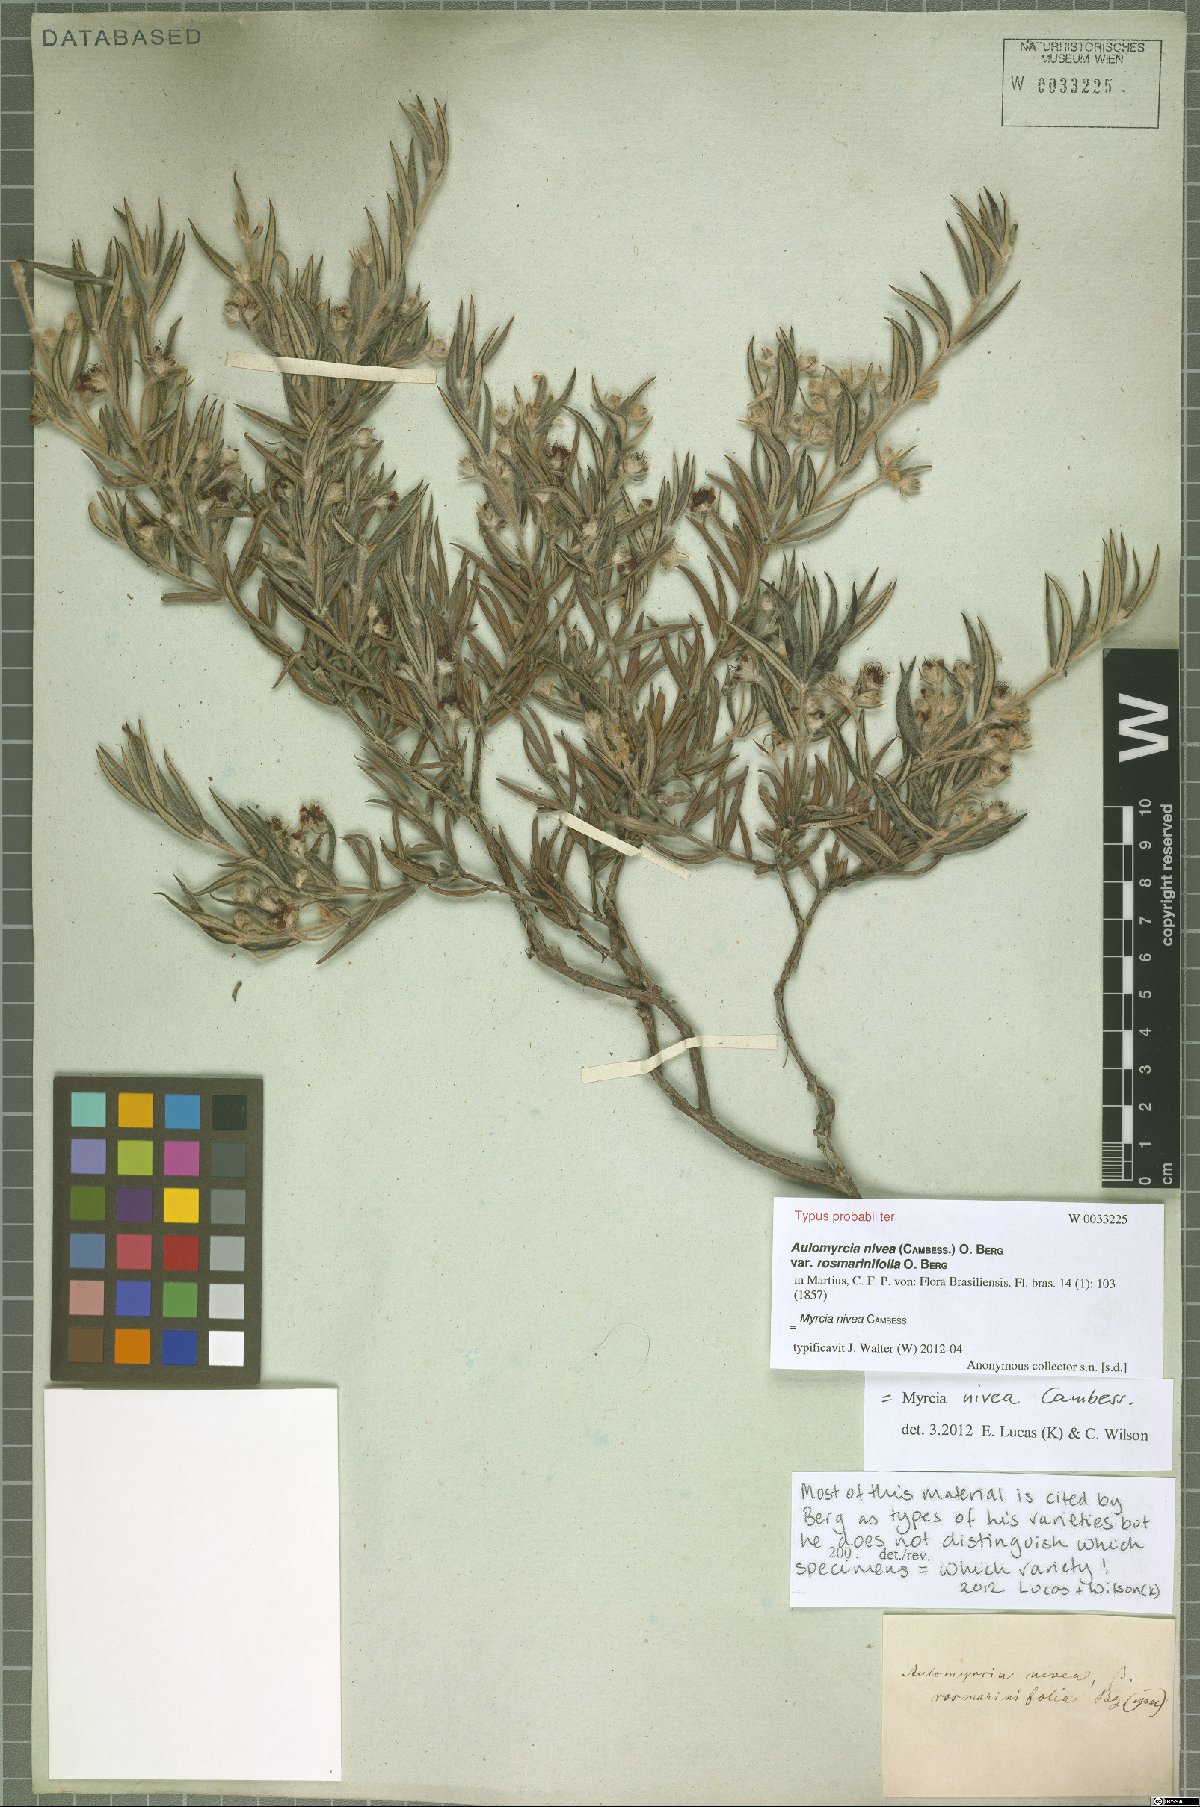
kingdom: Plantae
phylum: Tracheophyta
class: Magnoliopsida
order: Myrtales
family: Myrtaceae
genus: Myrcia
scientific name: Myrcia nivea
